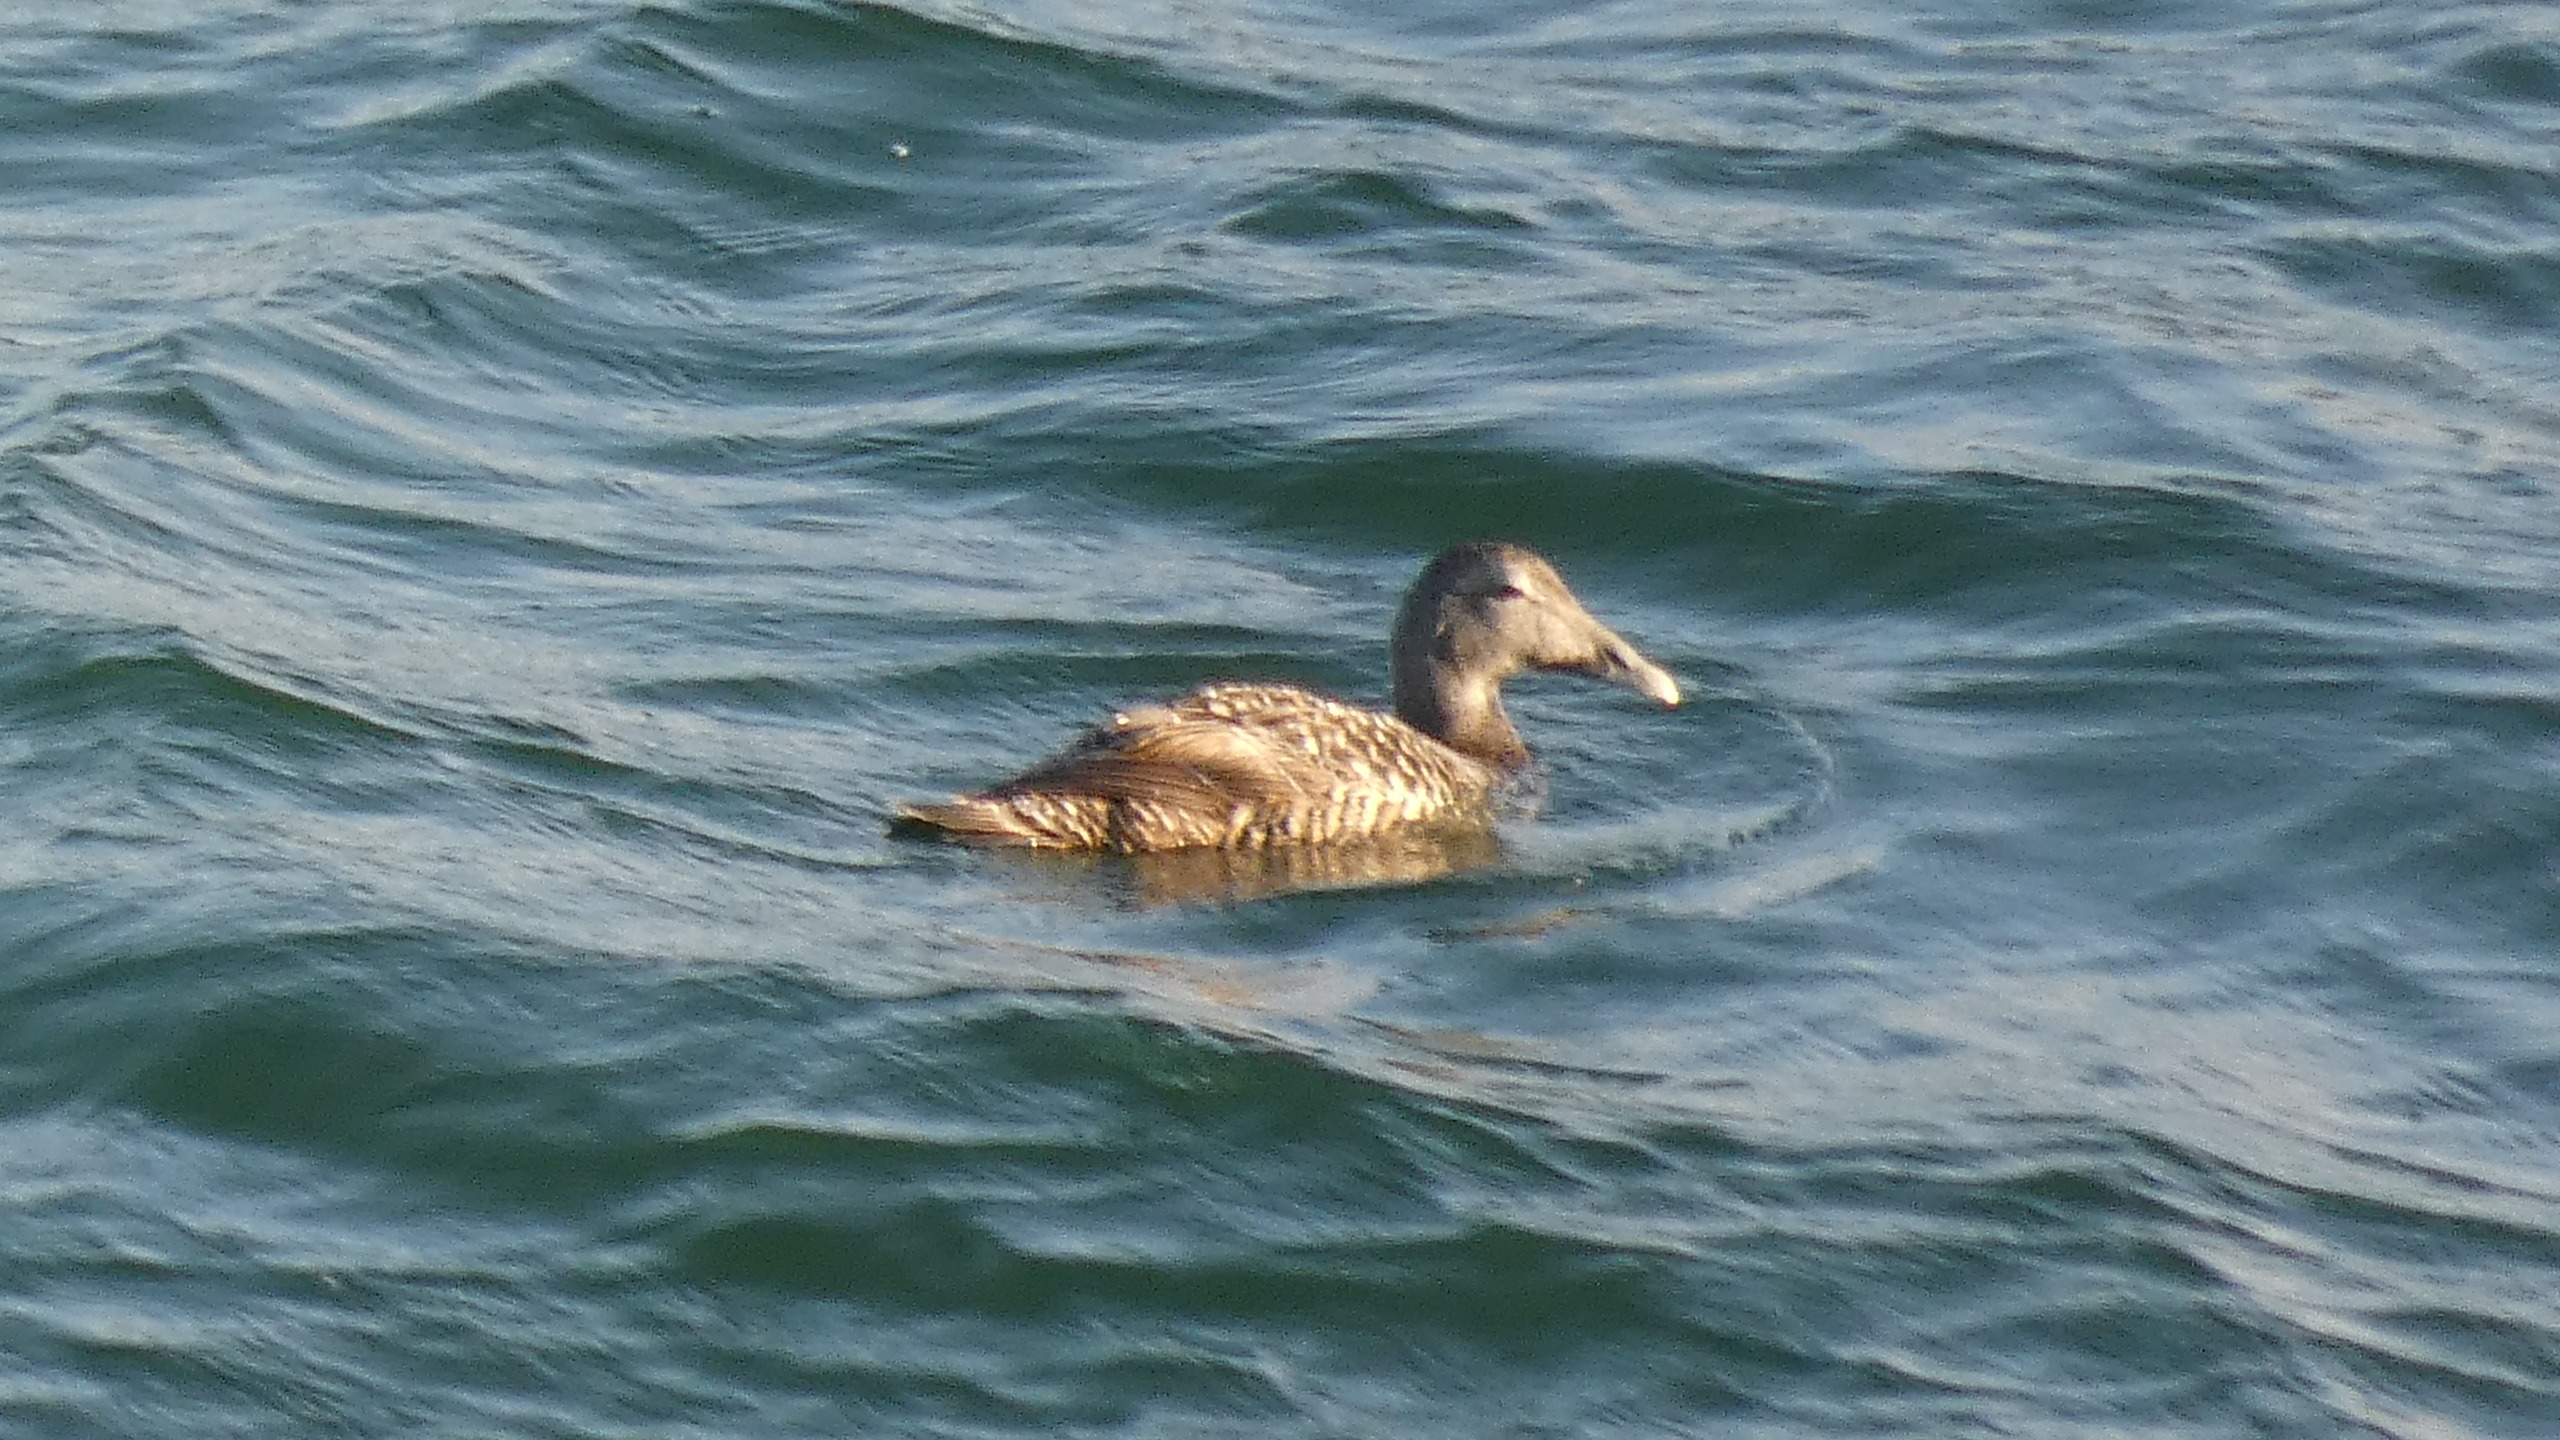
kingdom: Animalia
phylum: Chordata
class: Aves
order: Anseriformes
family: Anatidae
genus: Somateria
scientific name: Somateria mollissima
